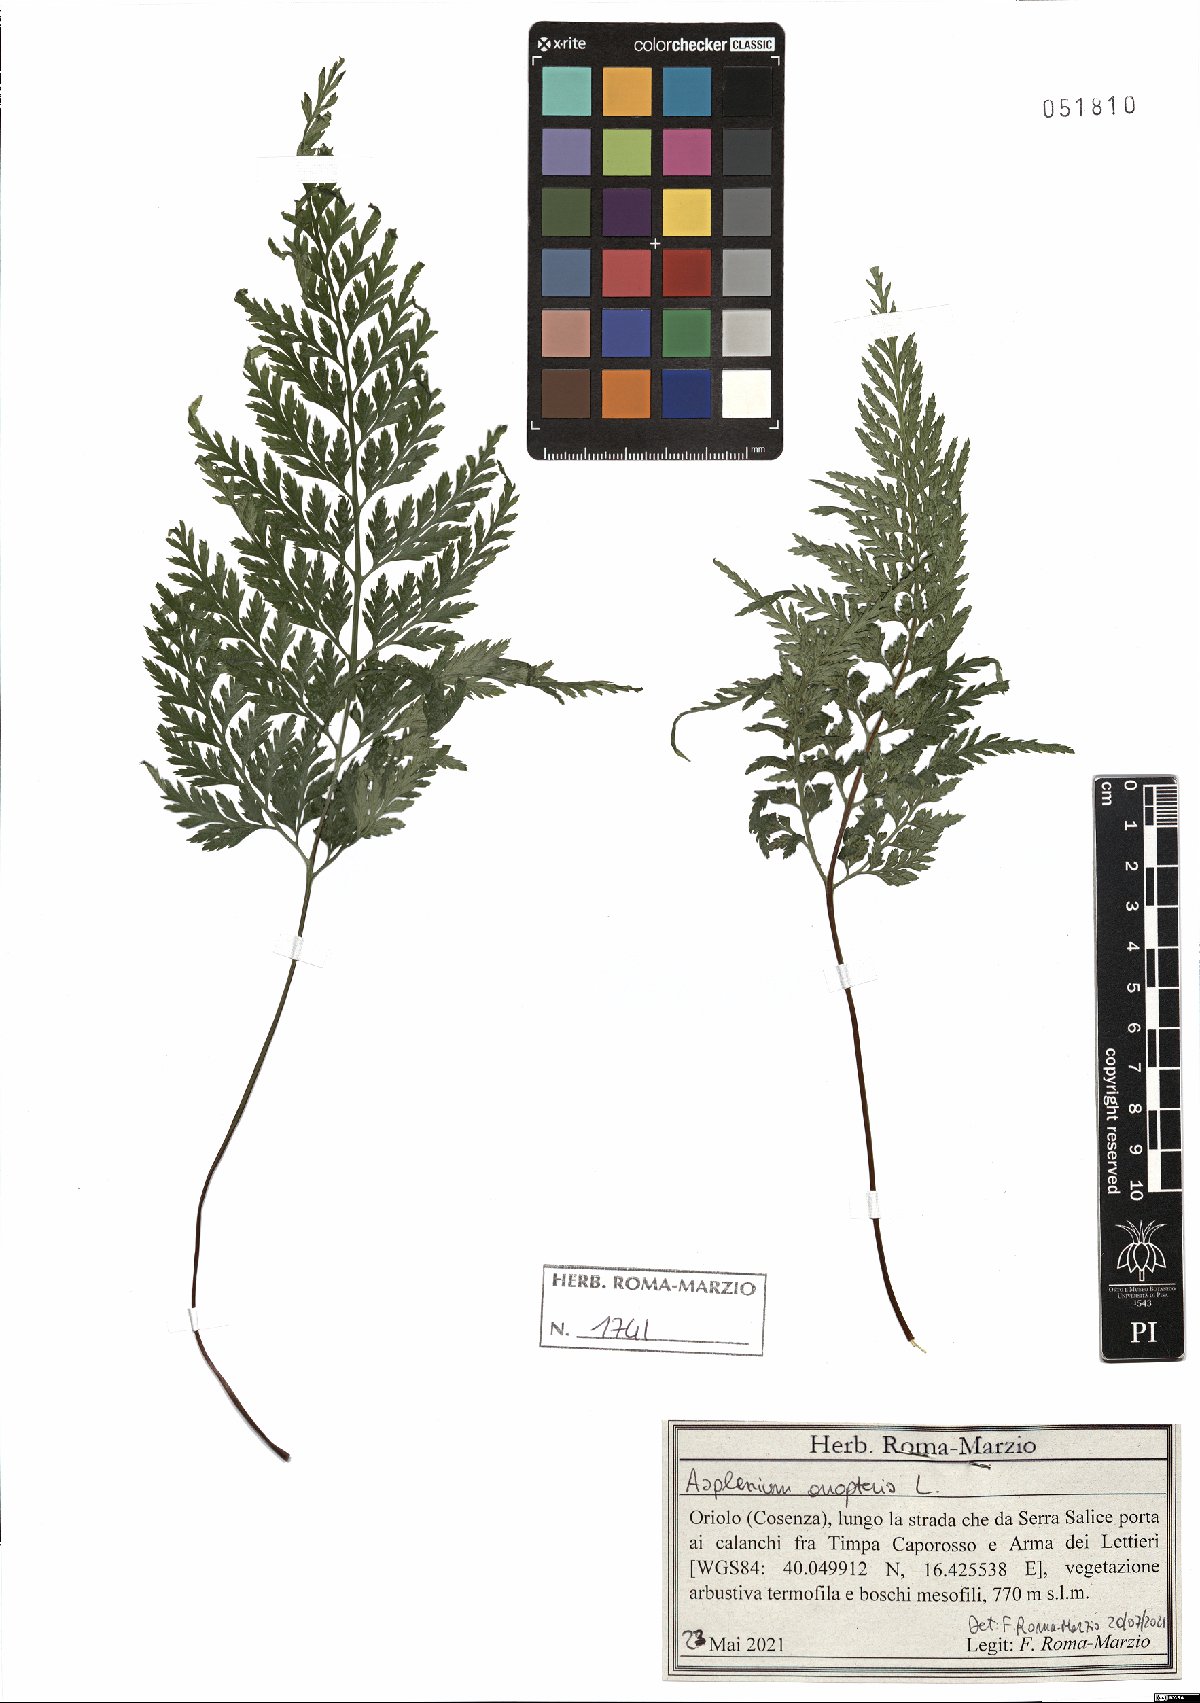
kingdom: Plantae
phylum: Tracheophyta
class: Polypodiopsida
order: Polypodiales
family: Aspleniaceae
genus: Asplenium
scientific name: Asplenium onopteris
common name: Irish spleenwort
